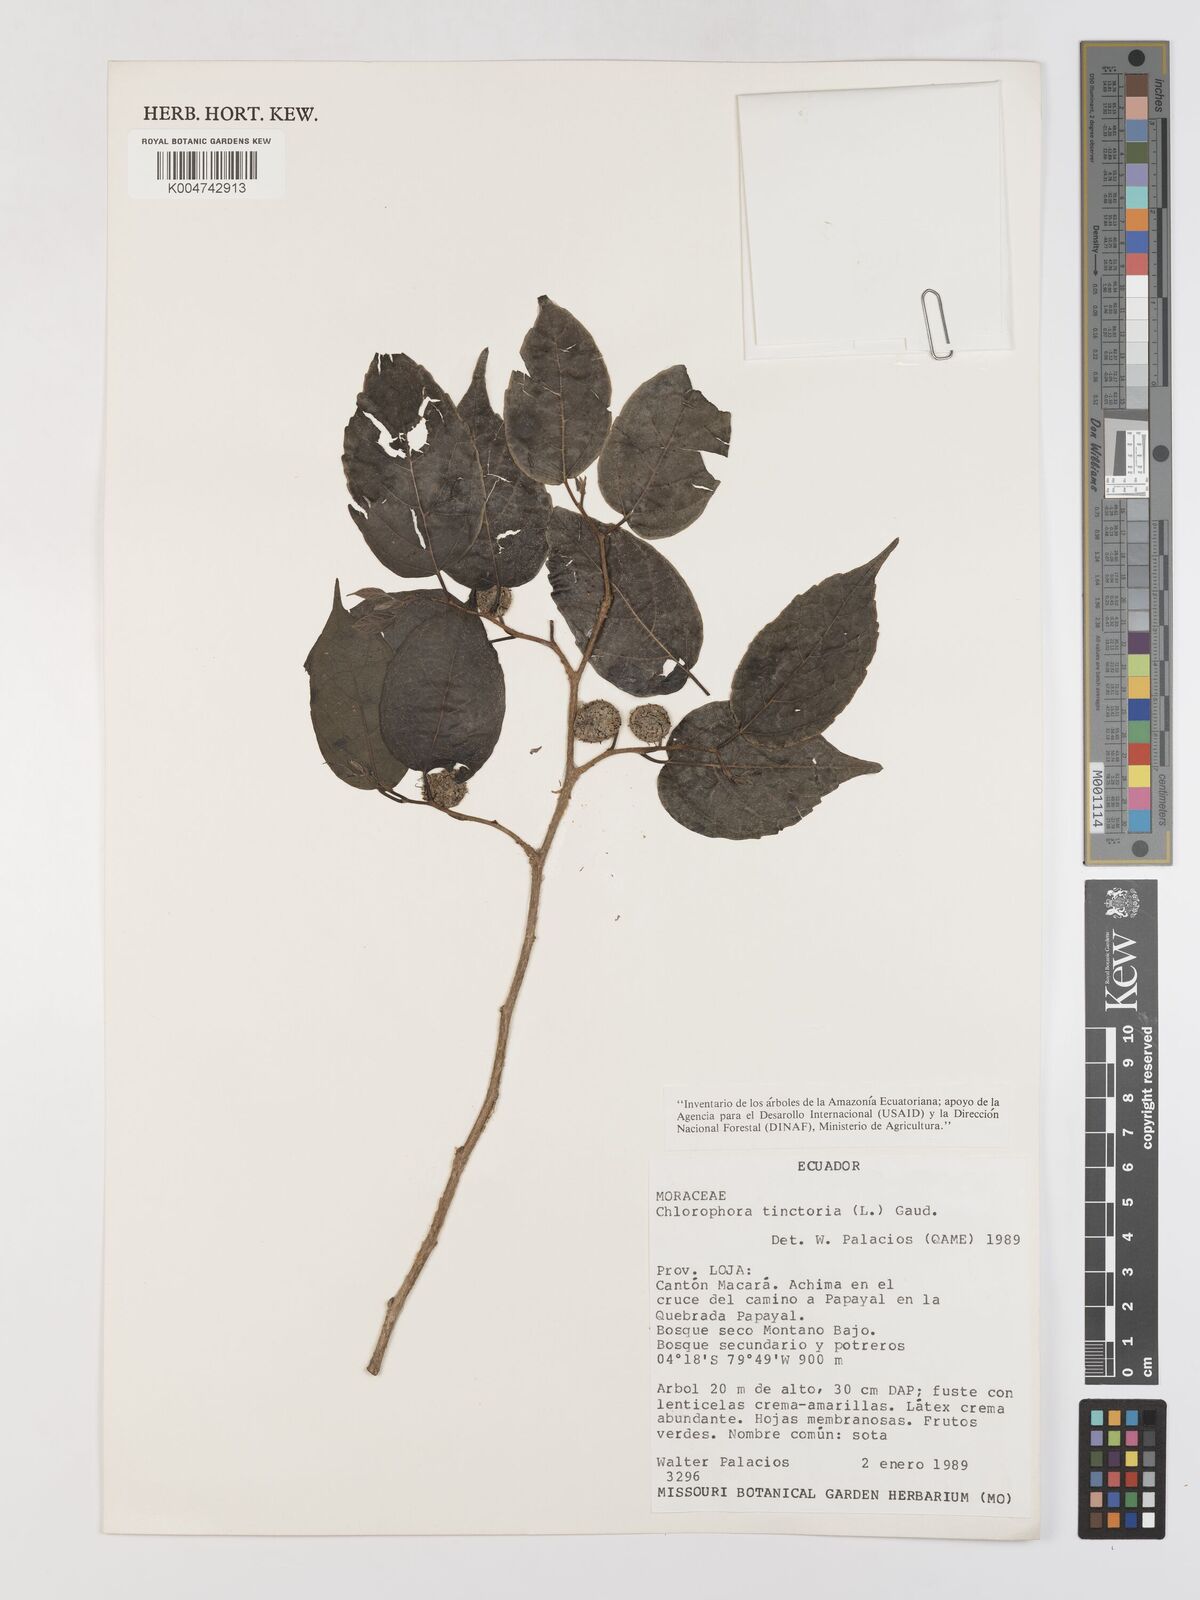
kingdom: Plantae
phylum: Tracheophyta
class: Magnoliopsida
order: Rosales
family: Moraceae
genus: Maclura
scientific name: Maclura tinctoria
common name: Old fustic
